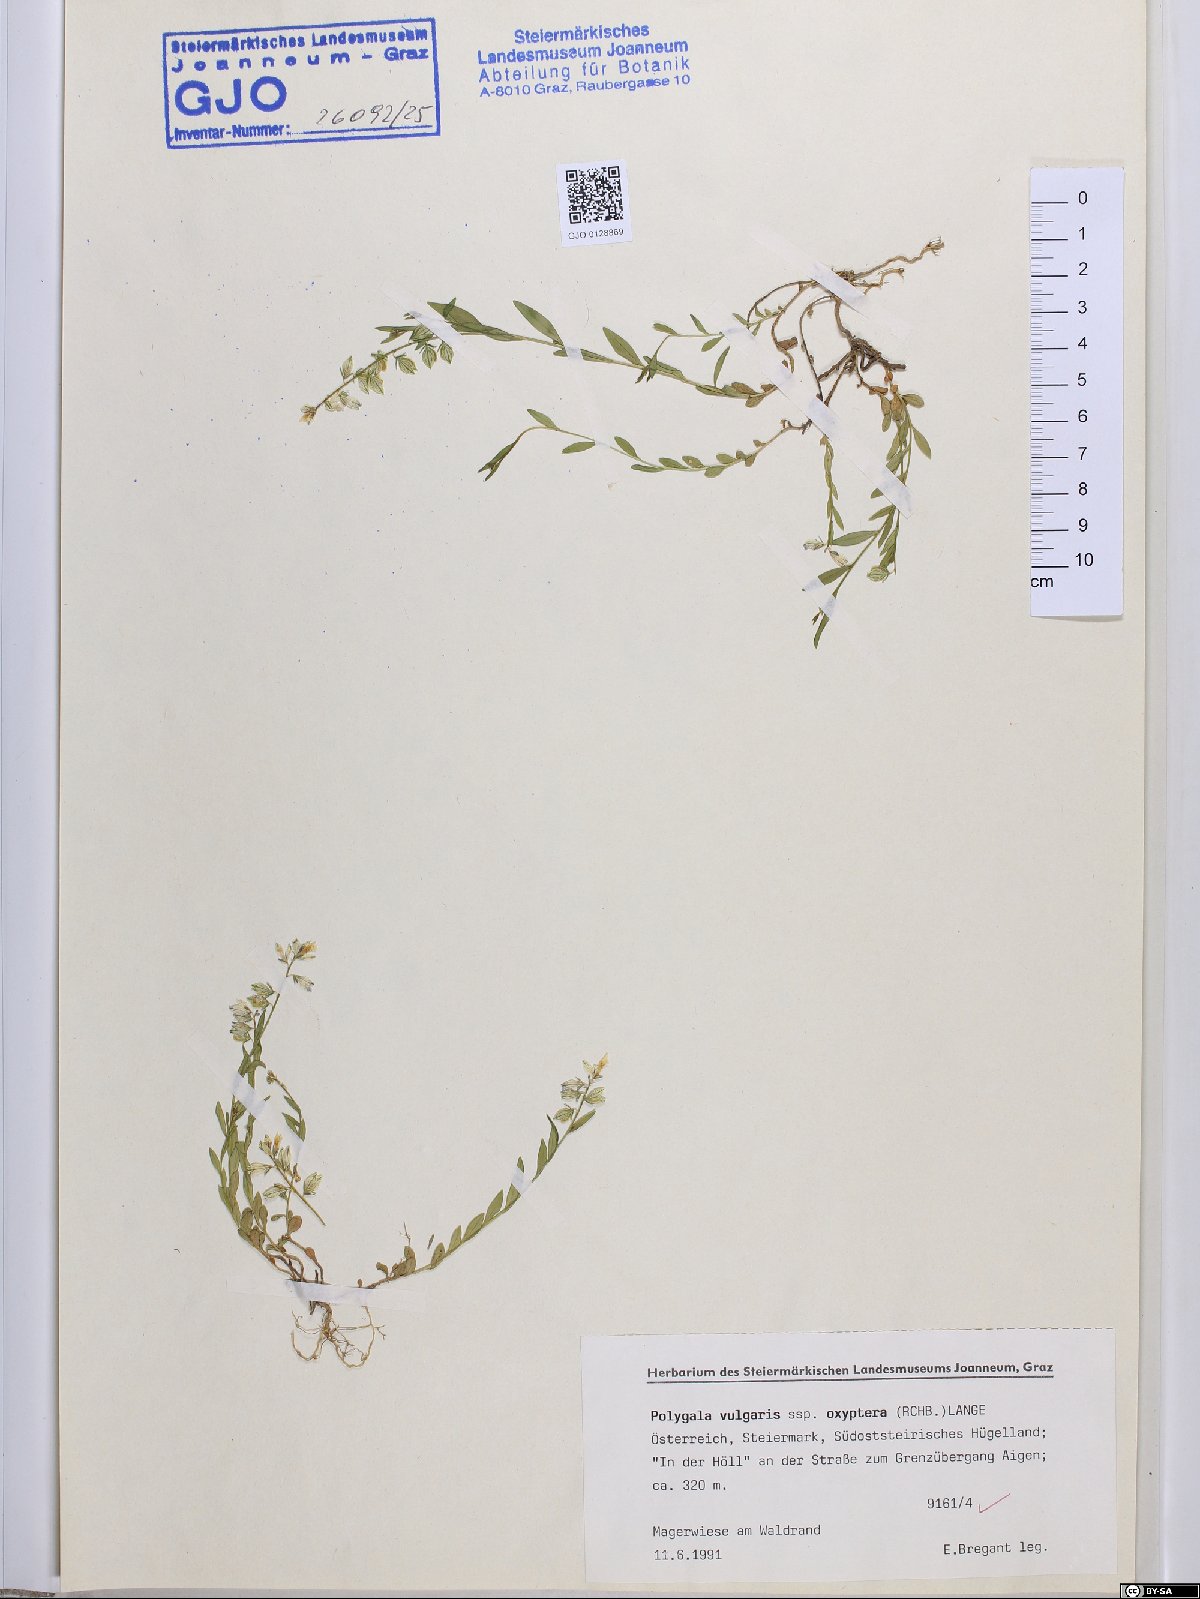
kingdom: Plantae
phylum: Tracheophyta
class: Magnoliopsida
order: Fabales
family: Polygalaceae
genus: Polygala
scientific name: Polygala vulgaris
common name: Common milkwort
